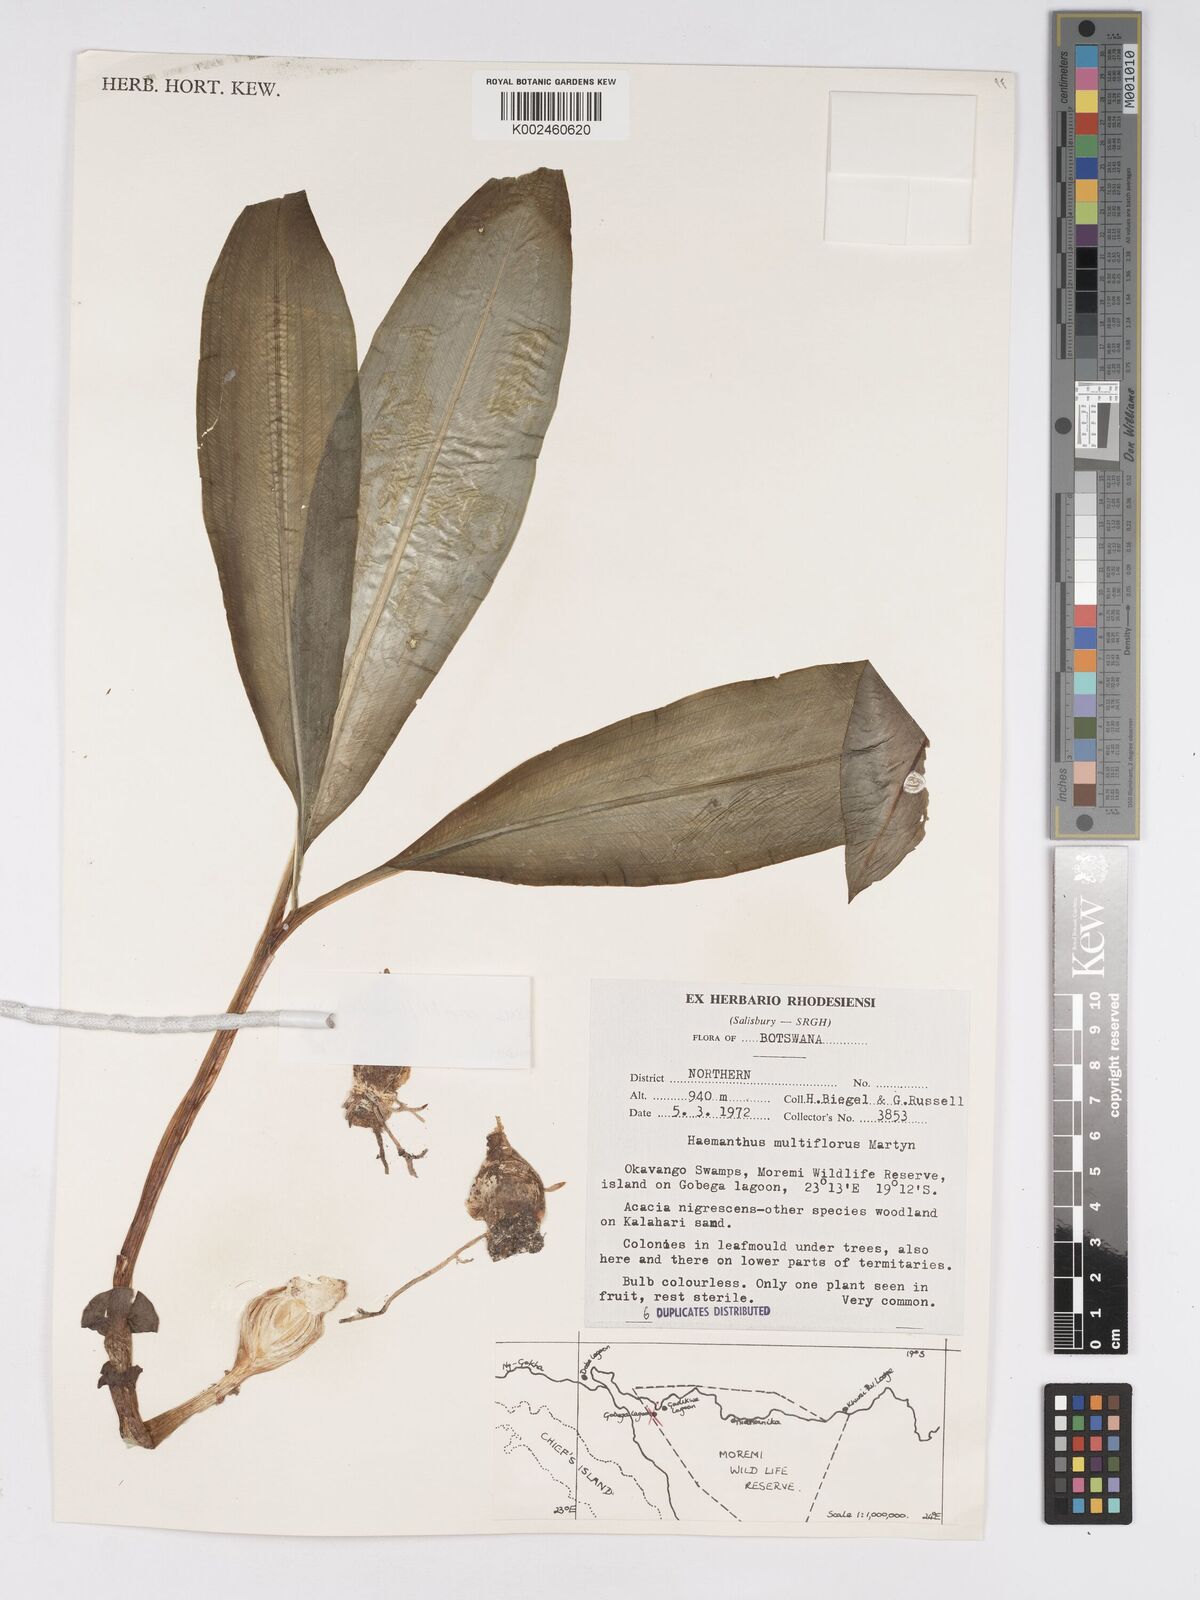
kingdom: Plantae
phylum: Tracheophyta
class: Liliopsida
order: Asparagales
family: Amaryllidaceae
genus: Scadoxus
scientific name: Scadoxus multiflorus
